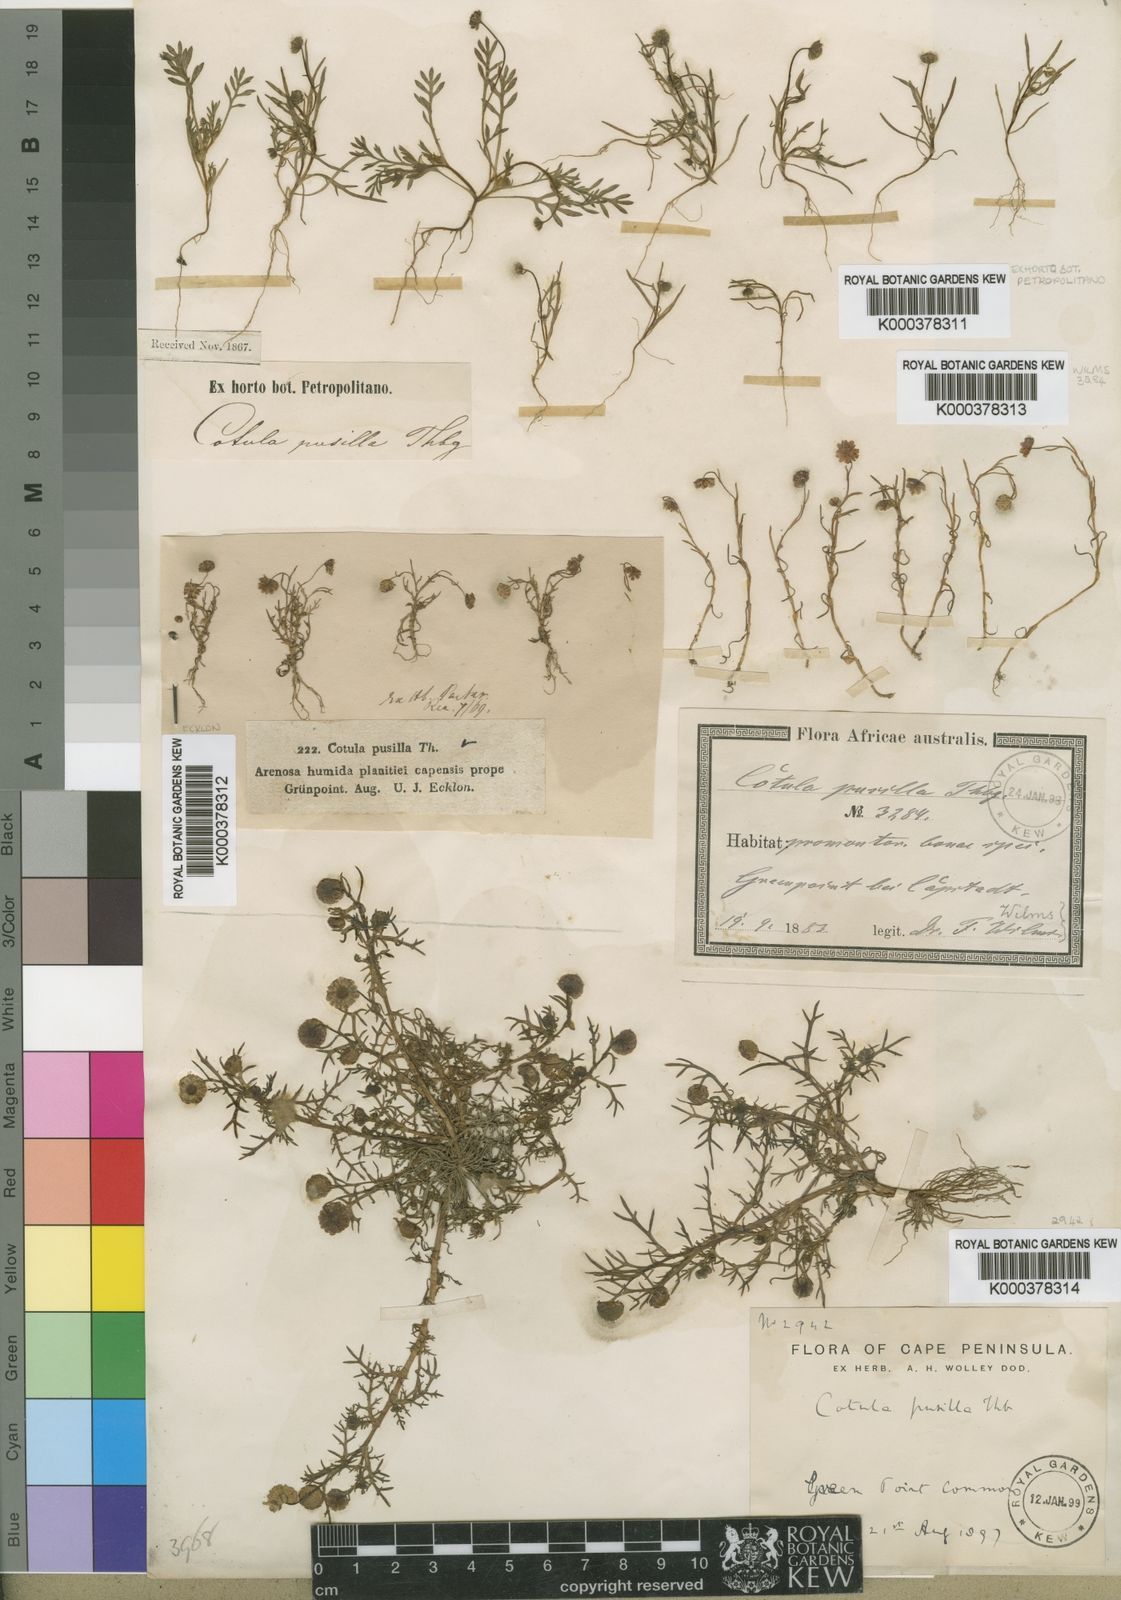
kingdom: Plantae
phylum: Tracheophyta
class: Magnoliopsida
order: Asterales
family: Asteraceae
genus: Cotula
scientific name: Cotula pusilla
